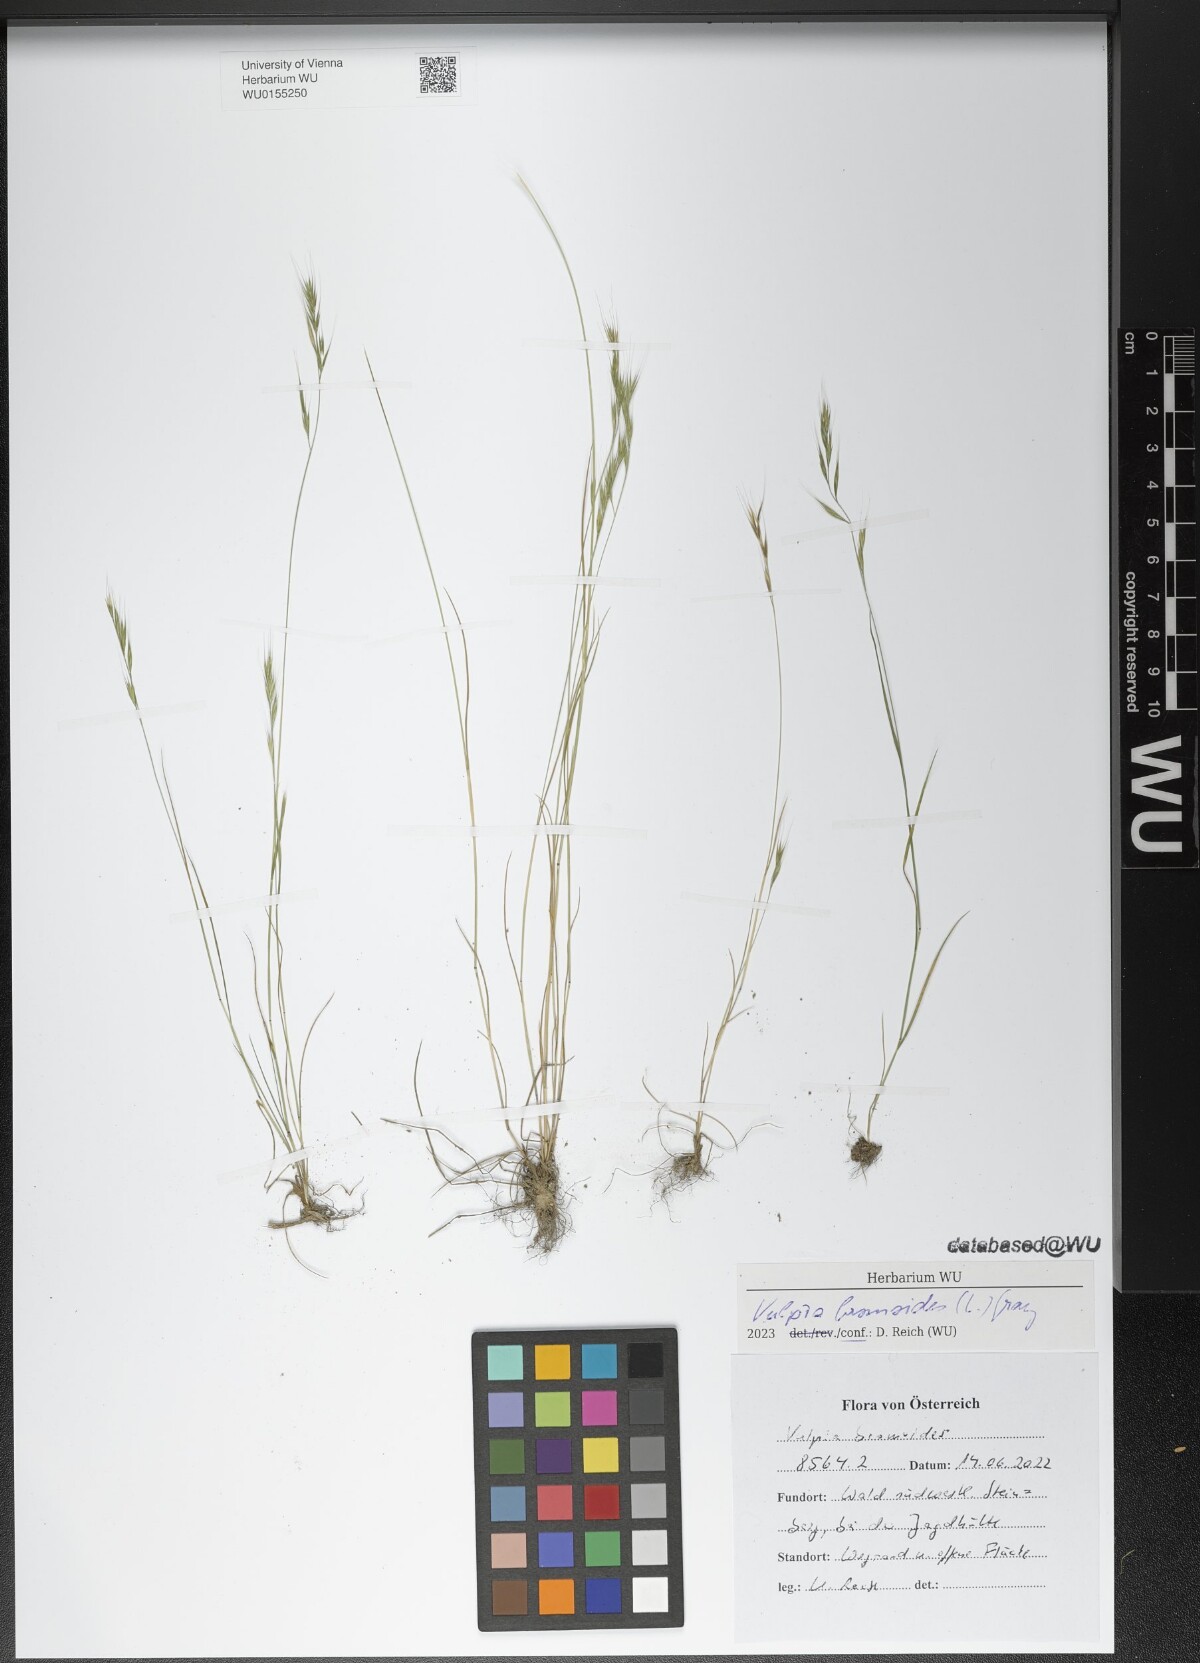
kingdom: Plantae
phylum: Tracheophyta
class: Liliopsida
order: Poales
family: Poaceae
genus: Festuca
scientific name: Festuca bromoides
